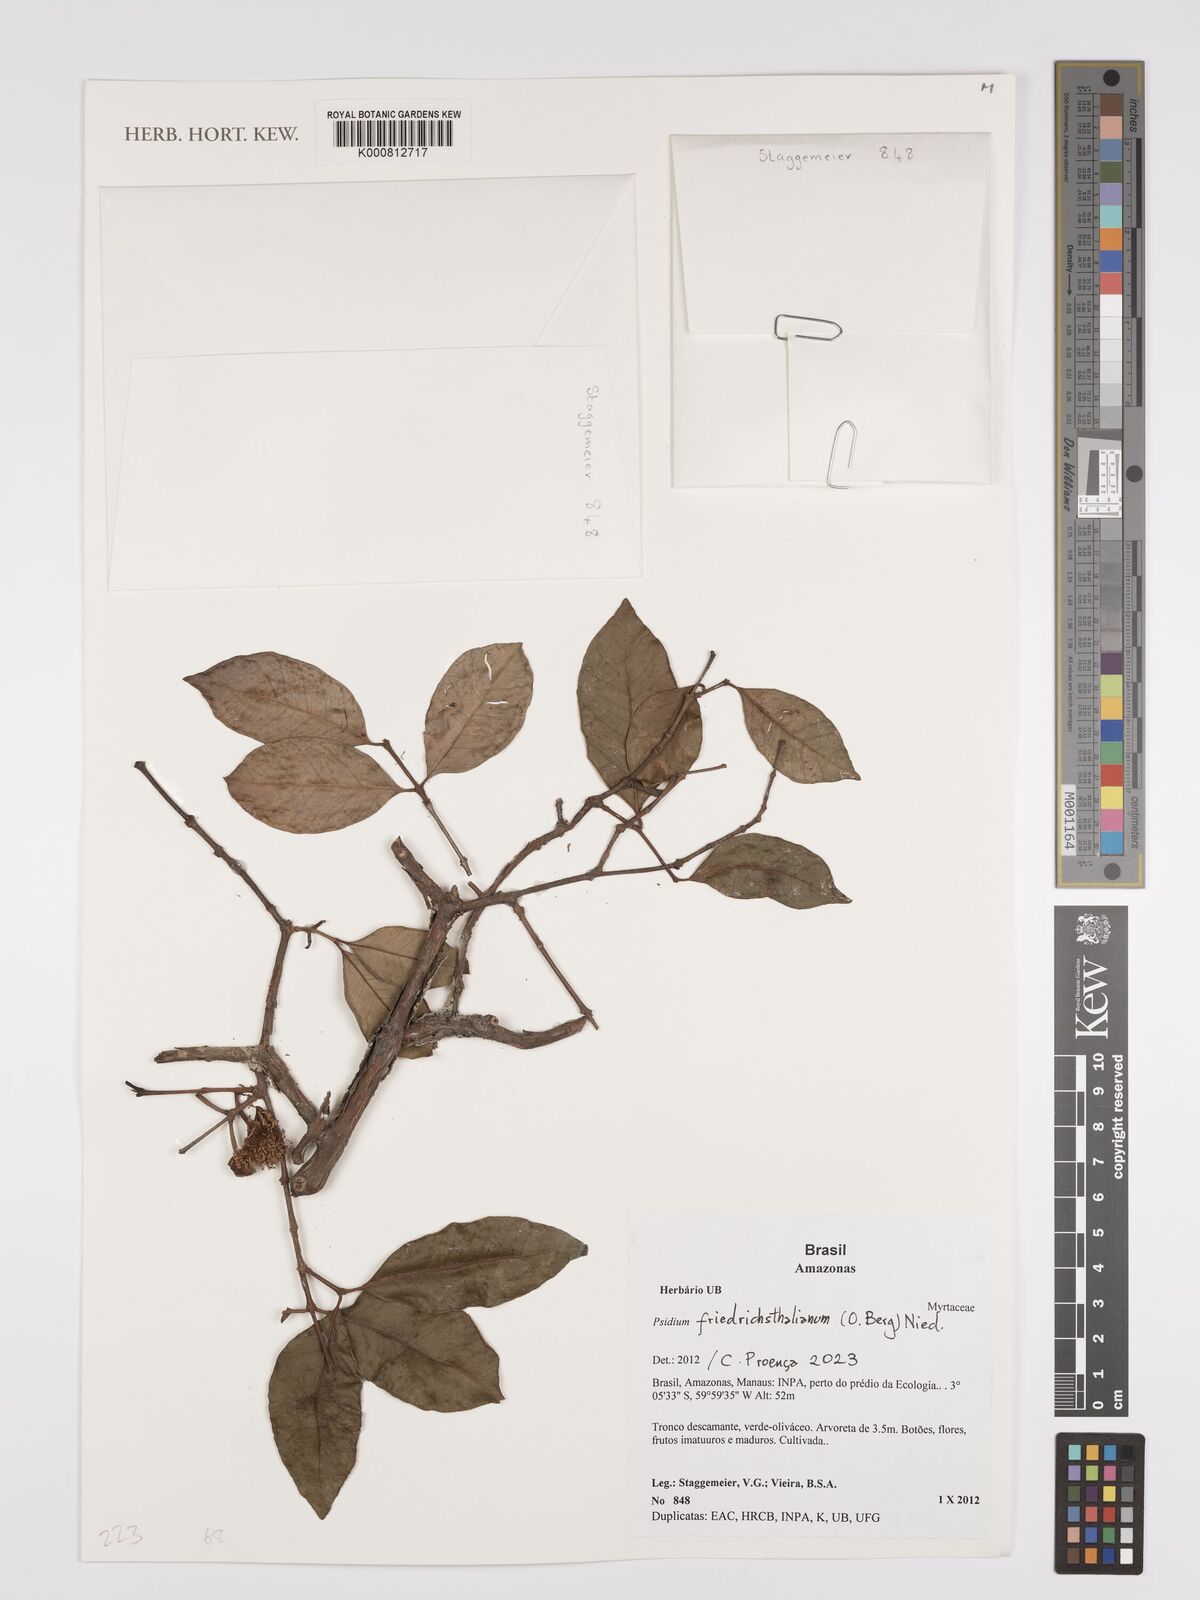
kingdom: Plantae
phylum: Tracheophyta
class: Magnoliopsida
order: Myrtales
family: Myrtaceae
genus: Psidium
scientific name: Psidium
